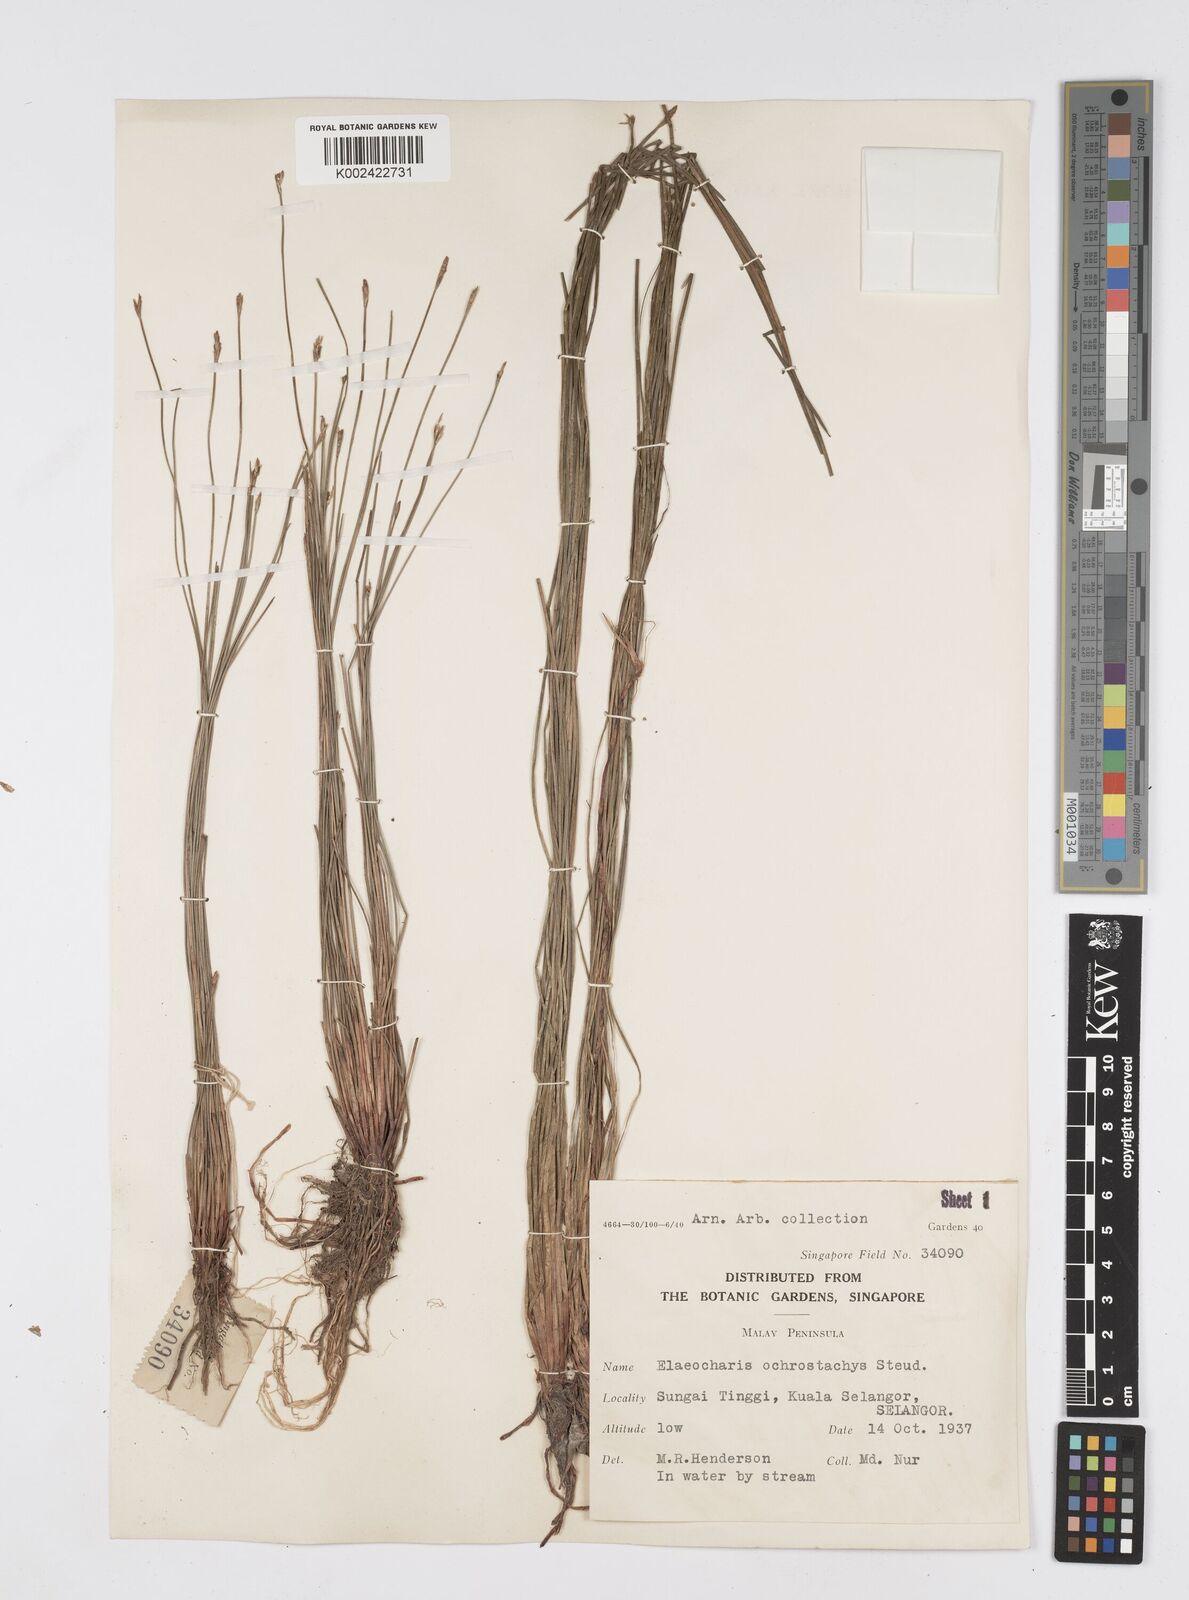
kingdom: Plantae
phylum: Tracheophyta
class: Liliopsida
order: Poales
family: Cyperaceae
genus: Eleocharis
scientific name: Eleocharis variegata
